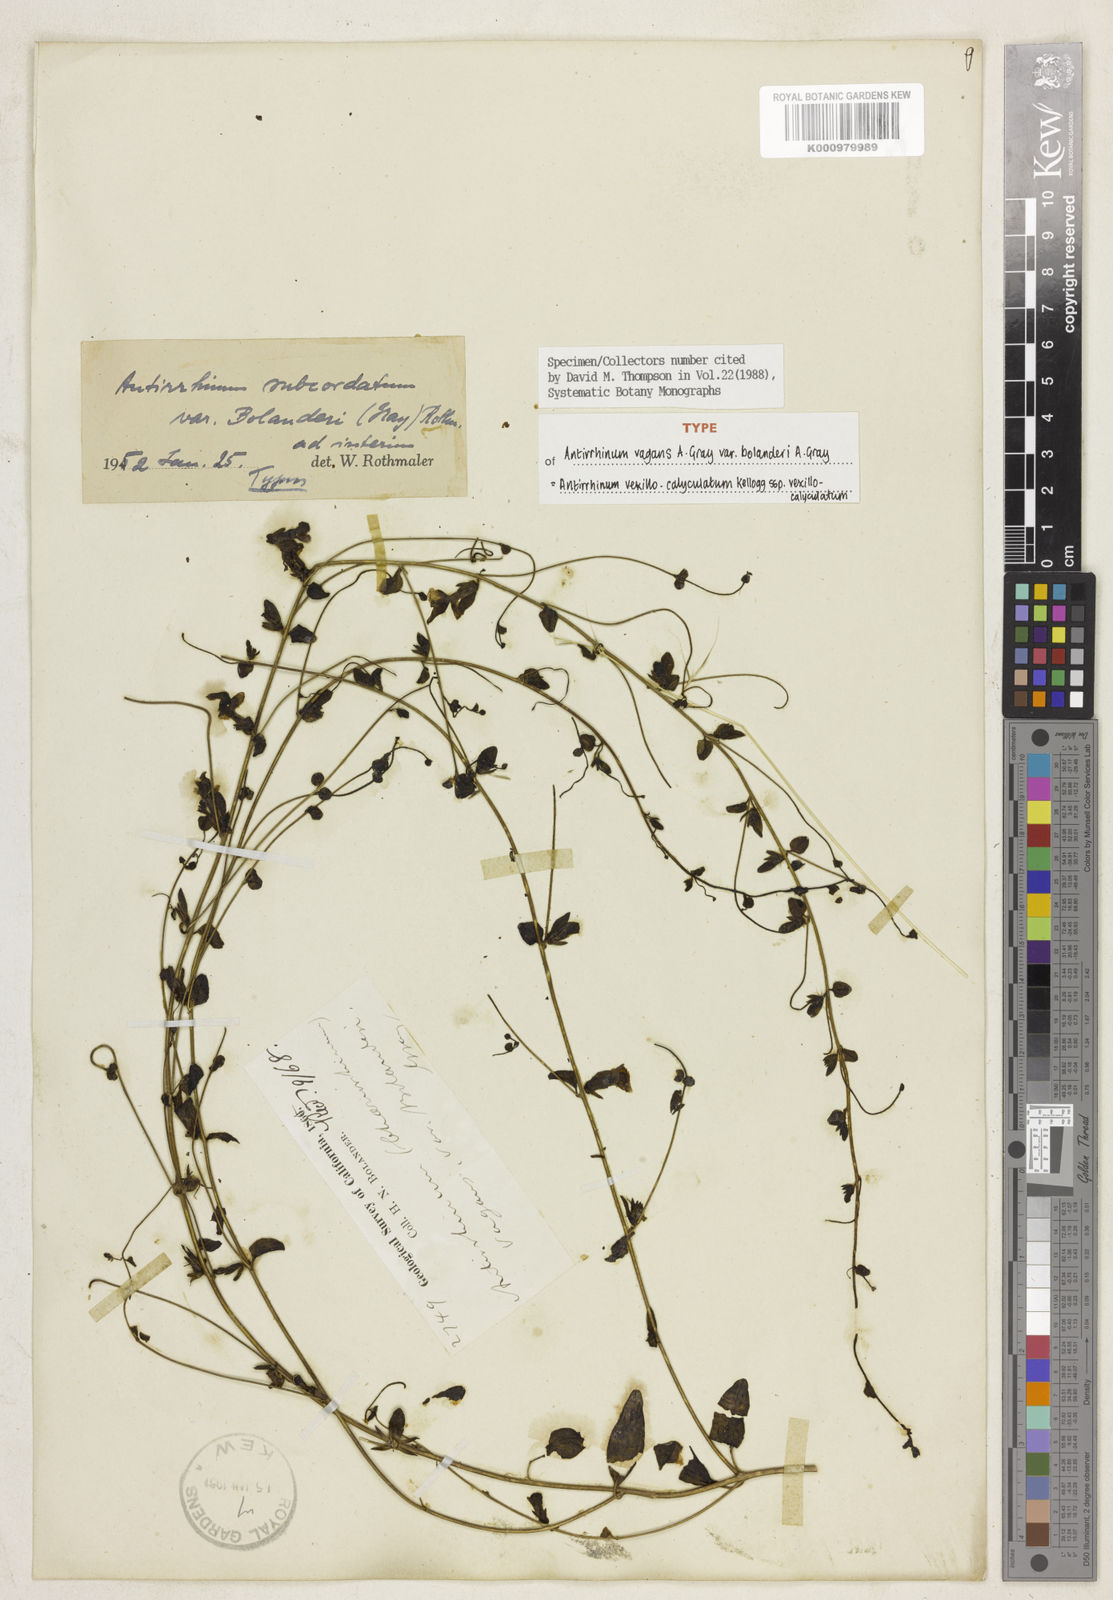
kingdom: Plantae
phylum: Tracheophyta
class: Magnoliopsida
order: Lamiales
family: Plantaginaceae
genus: Sairocarpus
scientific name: Sairocarpus vexillocalyculatus
